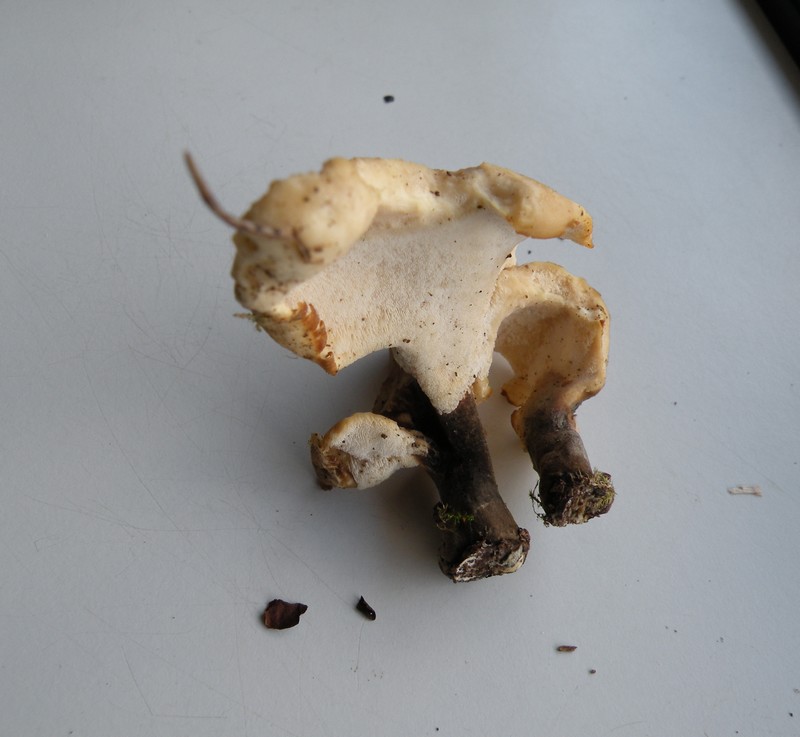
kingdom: Fungi
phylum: Basidiomycota
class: Agaricomycetes
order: Polyporales
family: Polyporaceae
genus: Cerioporus
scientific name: Cerioporus varius
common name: foranderlig stilkporesvamp
